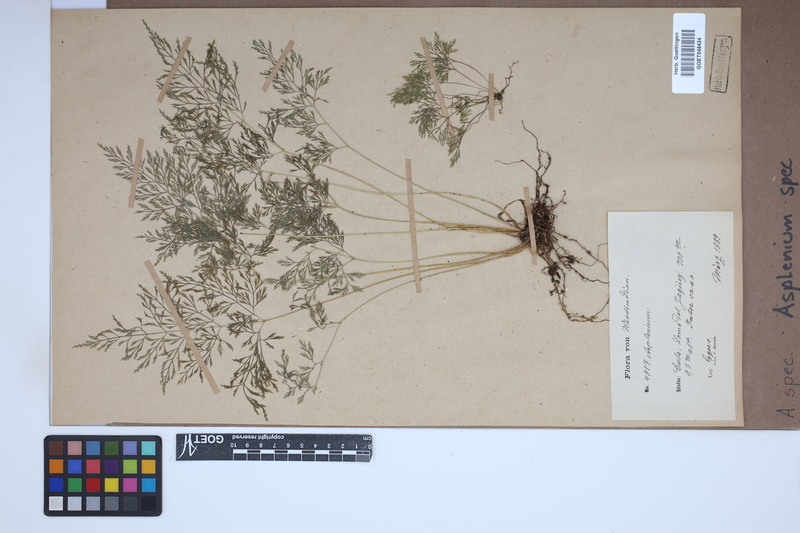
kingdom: Plantae
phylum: Tracheophyta
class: Polypodiopsida
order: Polypodiales
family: Aspleniaceae
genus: Asplenium
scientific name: Asplenium
